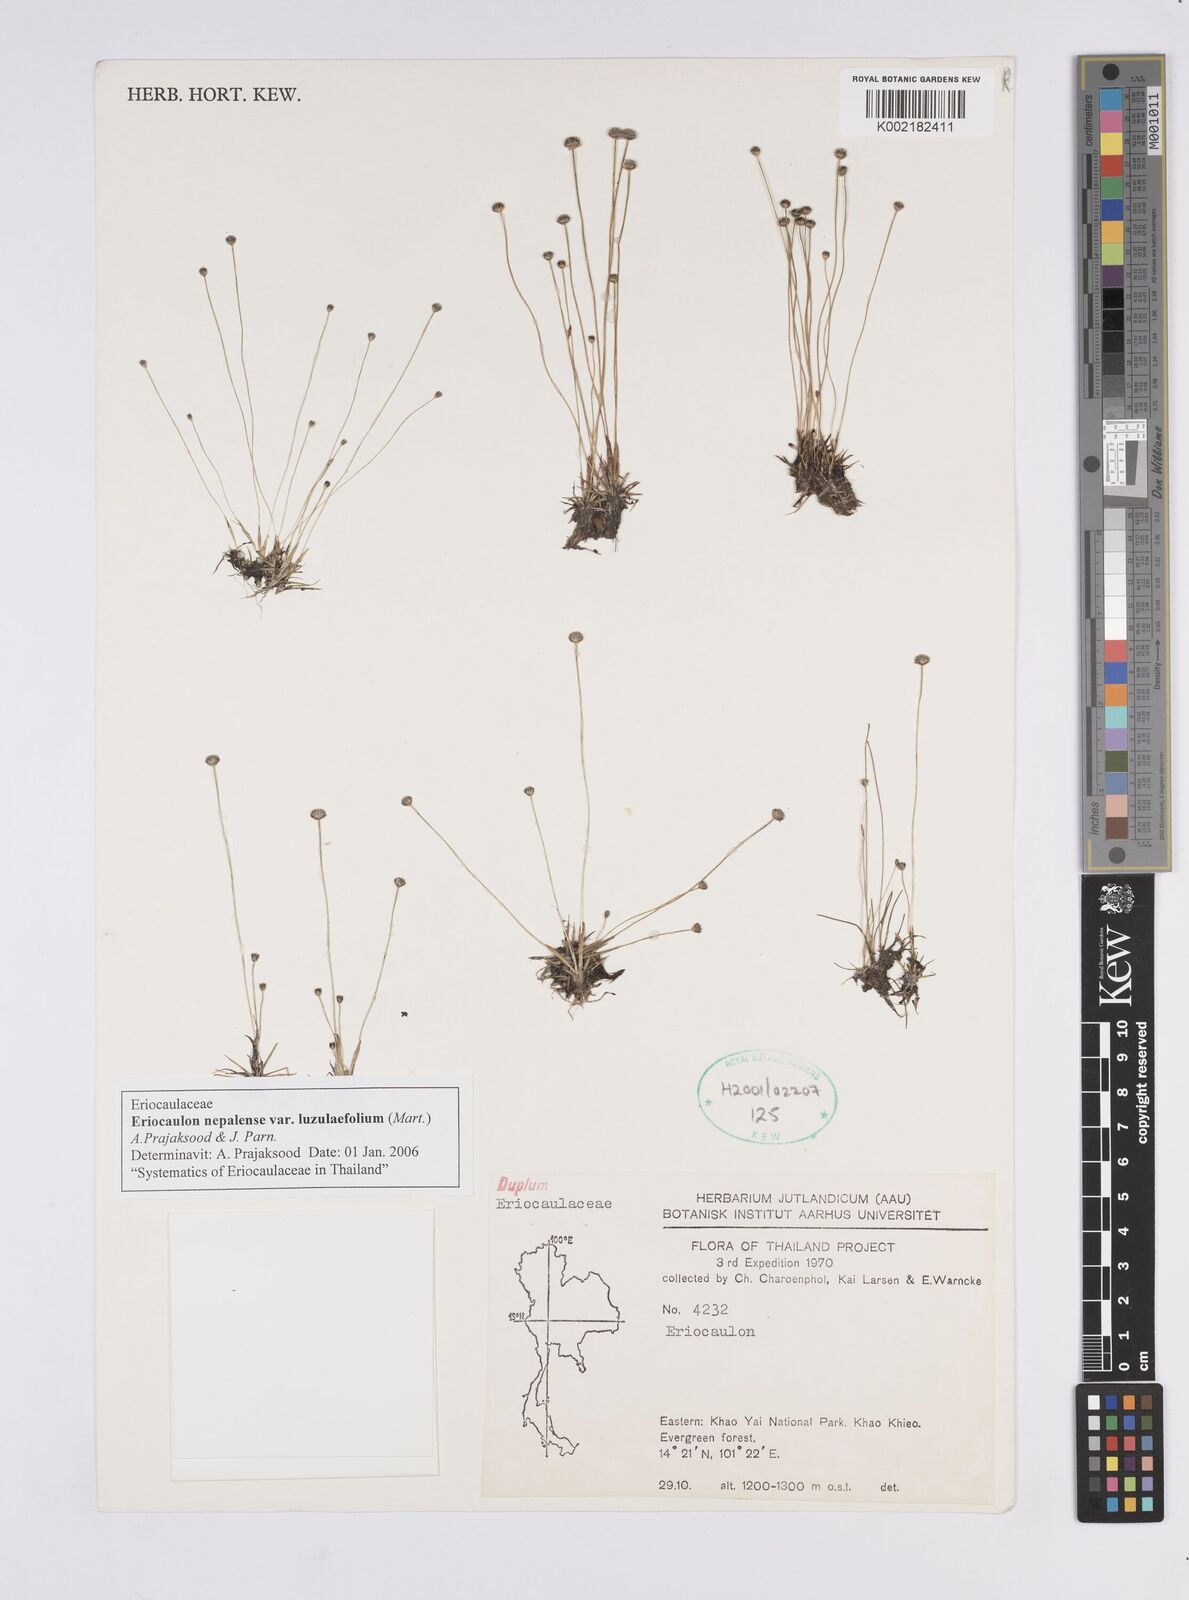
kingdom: Plantae
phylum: Tracheophyta
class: Liliopsida
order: Poales
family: Eriocaulaceae
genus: Eriocaulon
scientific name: Eriocaulon nepalense
